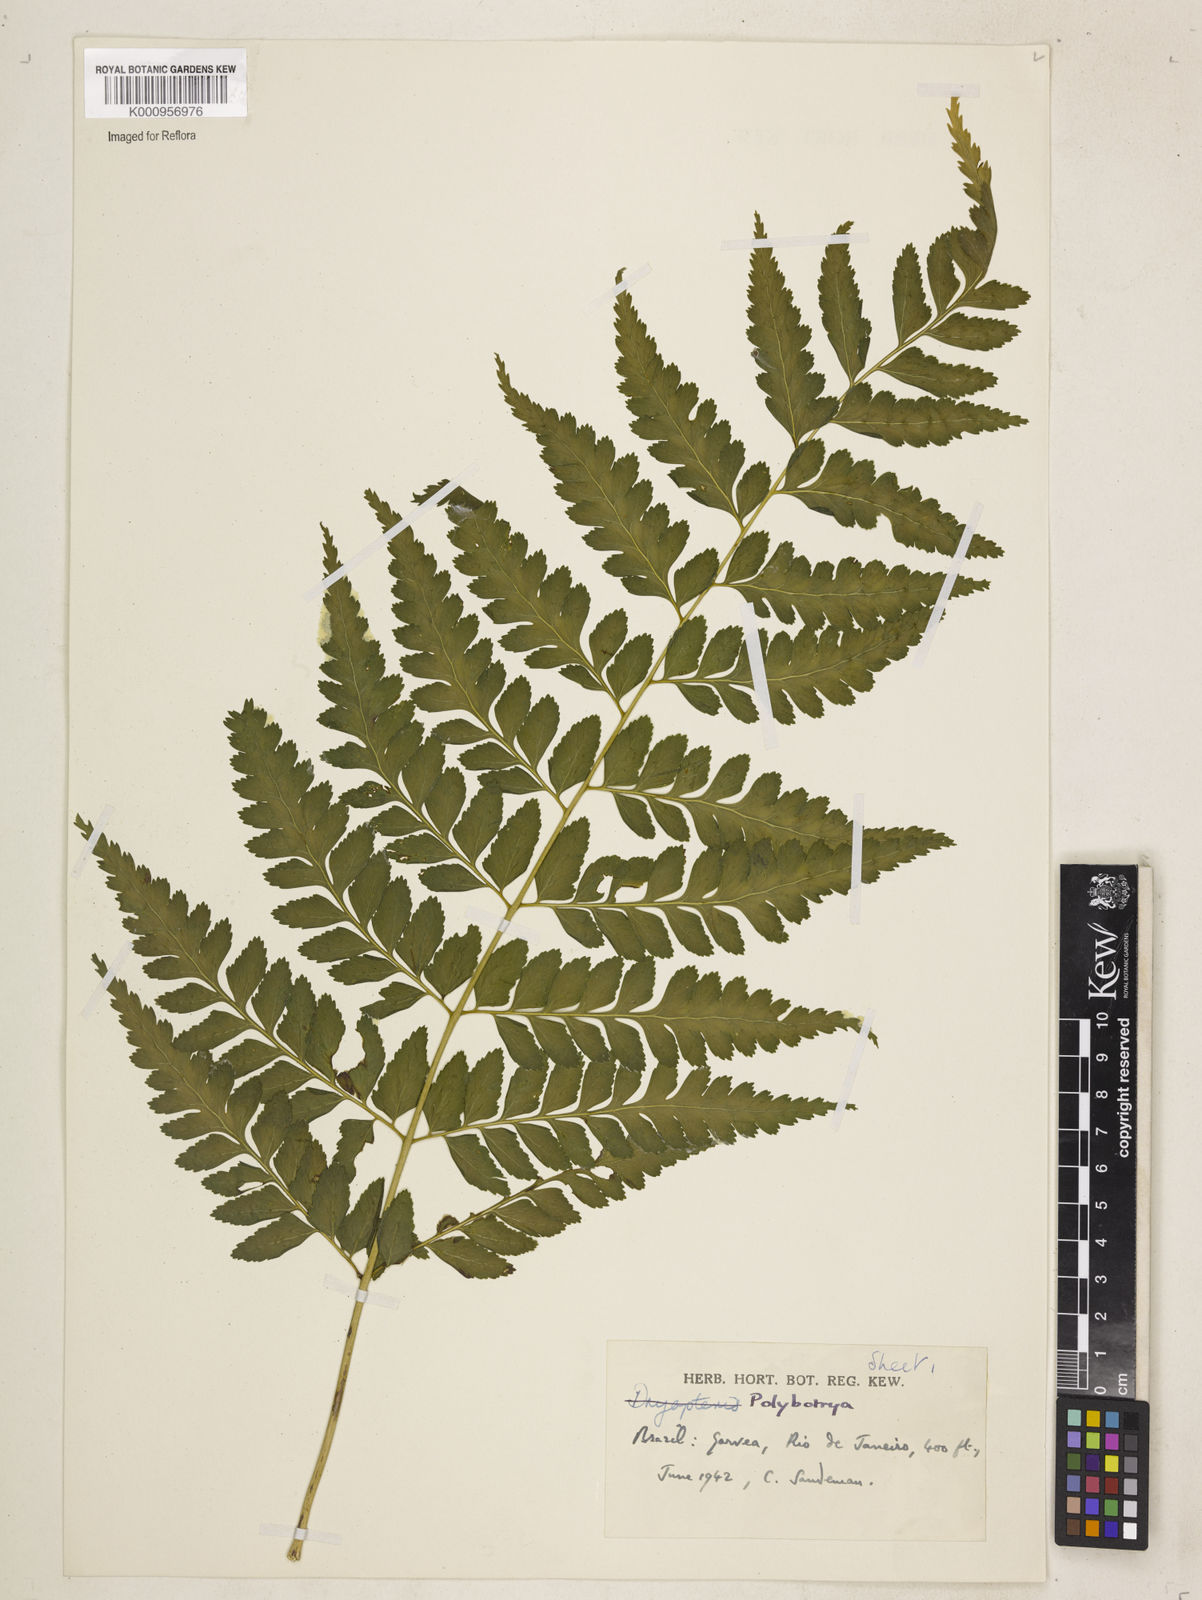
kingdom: Plantae
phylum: Tracheophyta
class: Polypodiopsida
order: Polypodiales
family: Dryopteridaceae
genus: Polybotrya
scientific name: Polybotrya osmundacea
